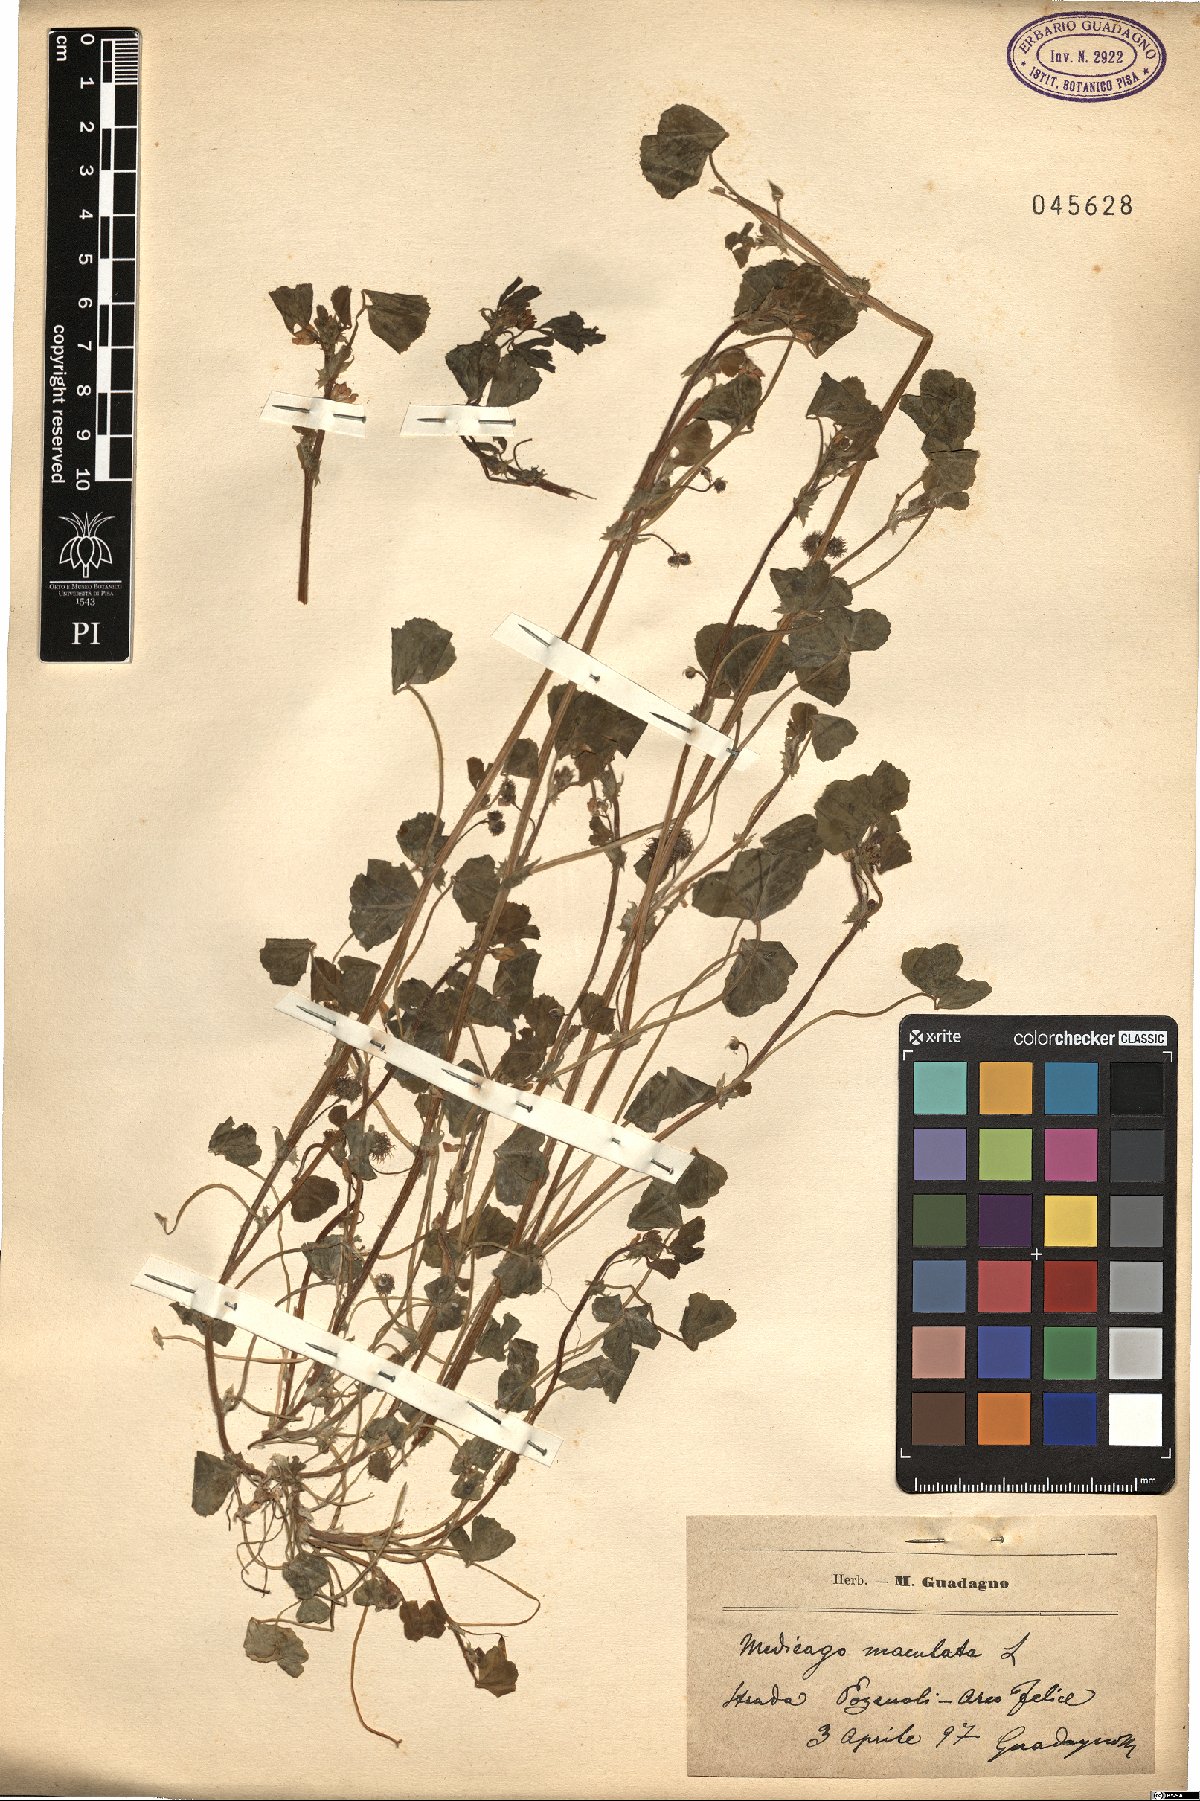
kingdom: Plantae
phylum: Tracheophyta
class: Magnoliopsida
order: Fabales
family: Fabaceae
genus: Medicago
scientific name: Medicago arabica
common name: Spotted medick
